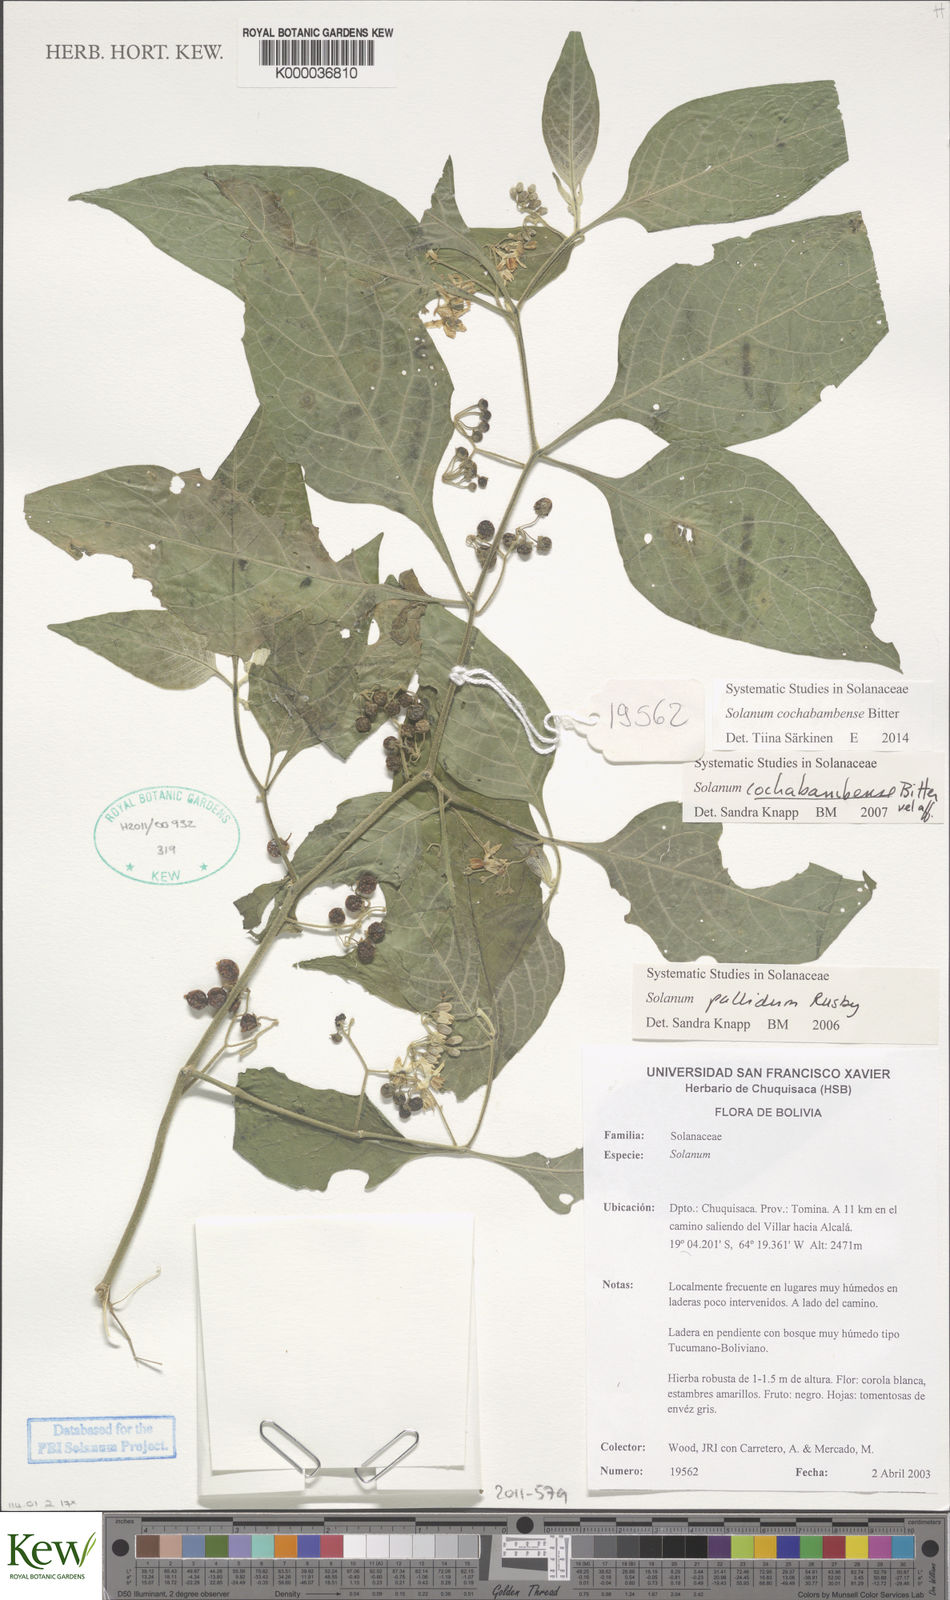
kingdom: Plantae
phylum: Tracheophyta
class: Magnoliopsida
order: Solanales
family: Solanaceae
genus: Solanum
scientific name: Solanum pallidum
